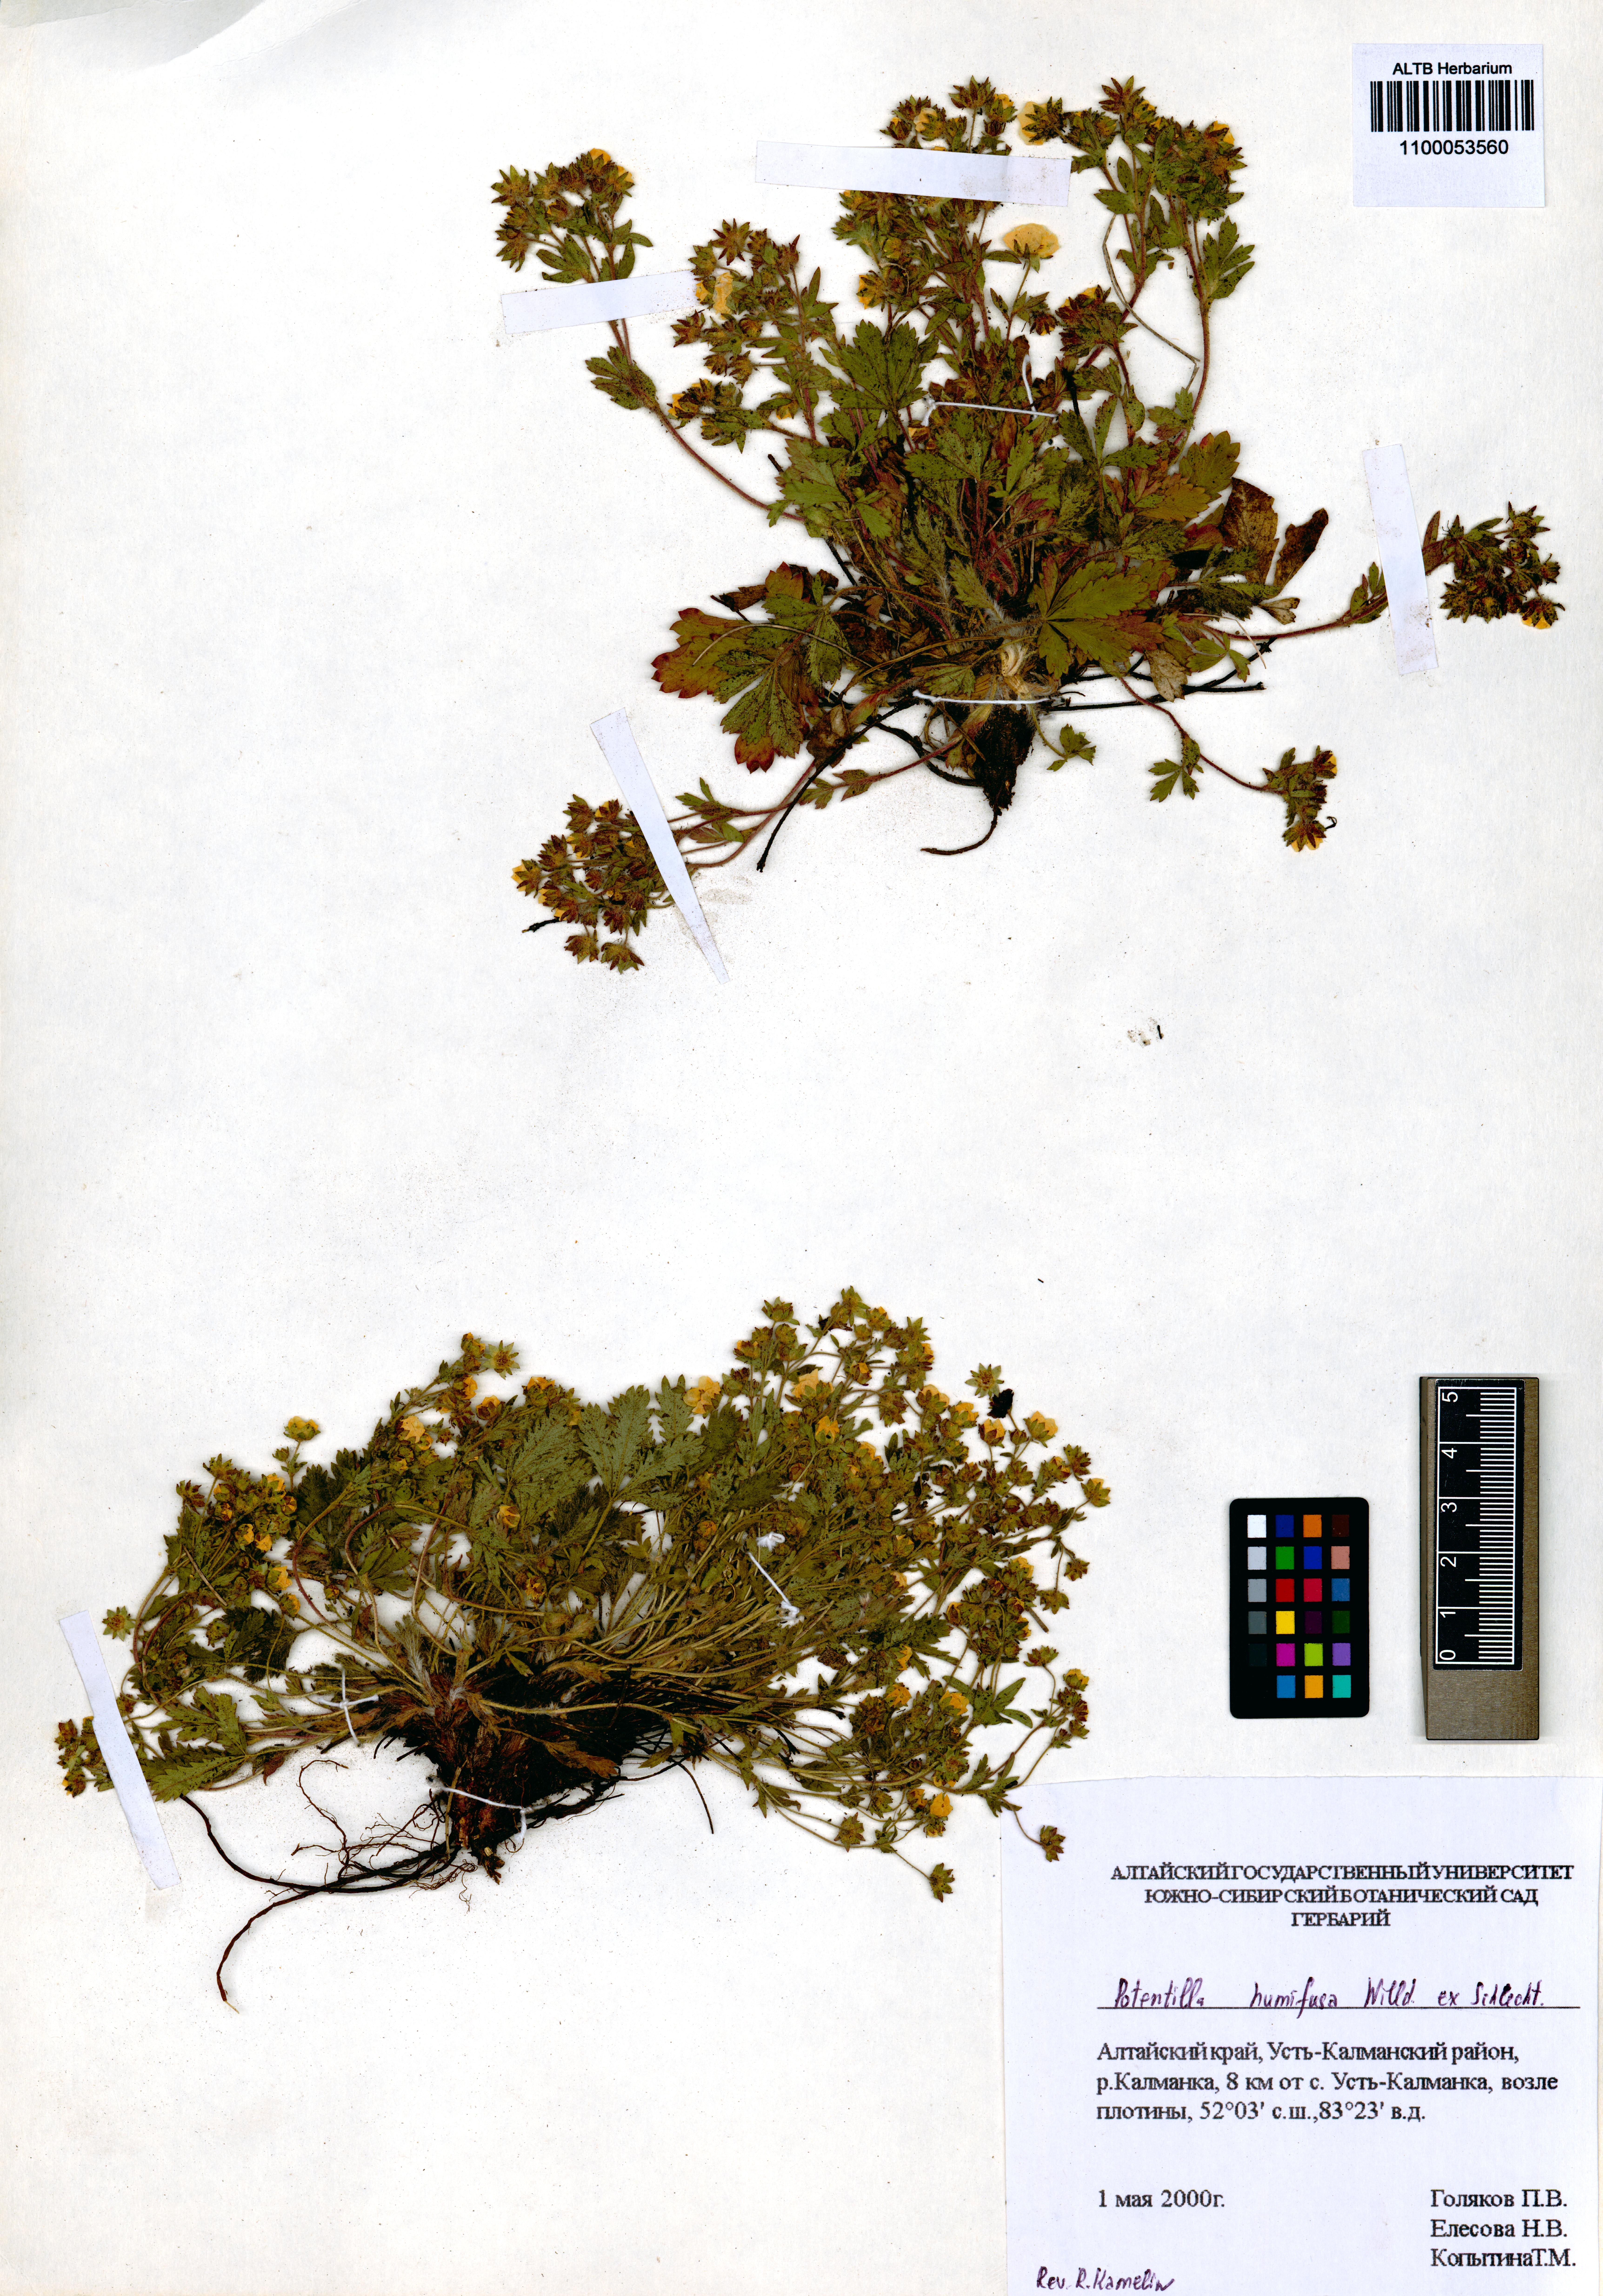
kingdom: Plantae
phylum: Tracheophyta
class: Magnoliopsida
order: Rosales
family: Rosaceae
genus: Potentilla
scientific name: Potentilla humifusa
